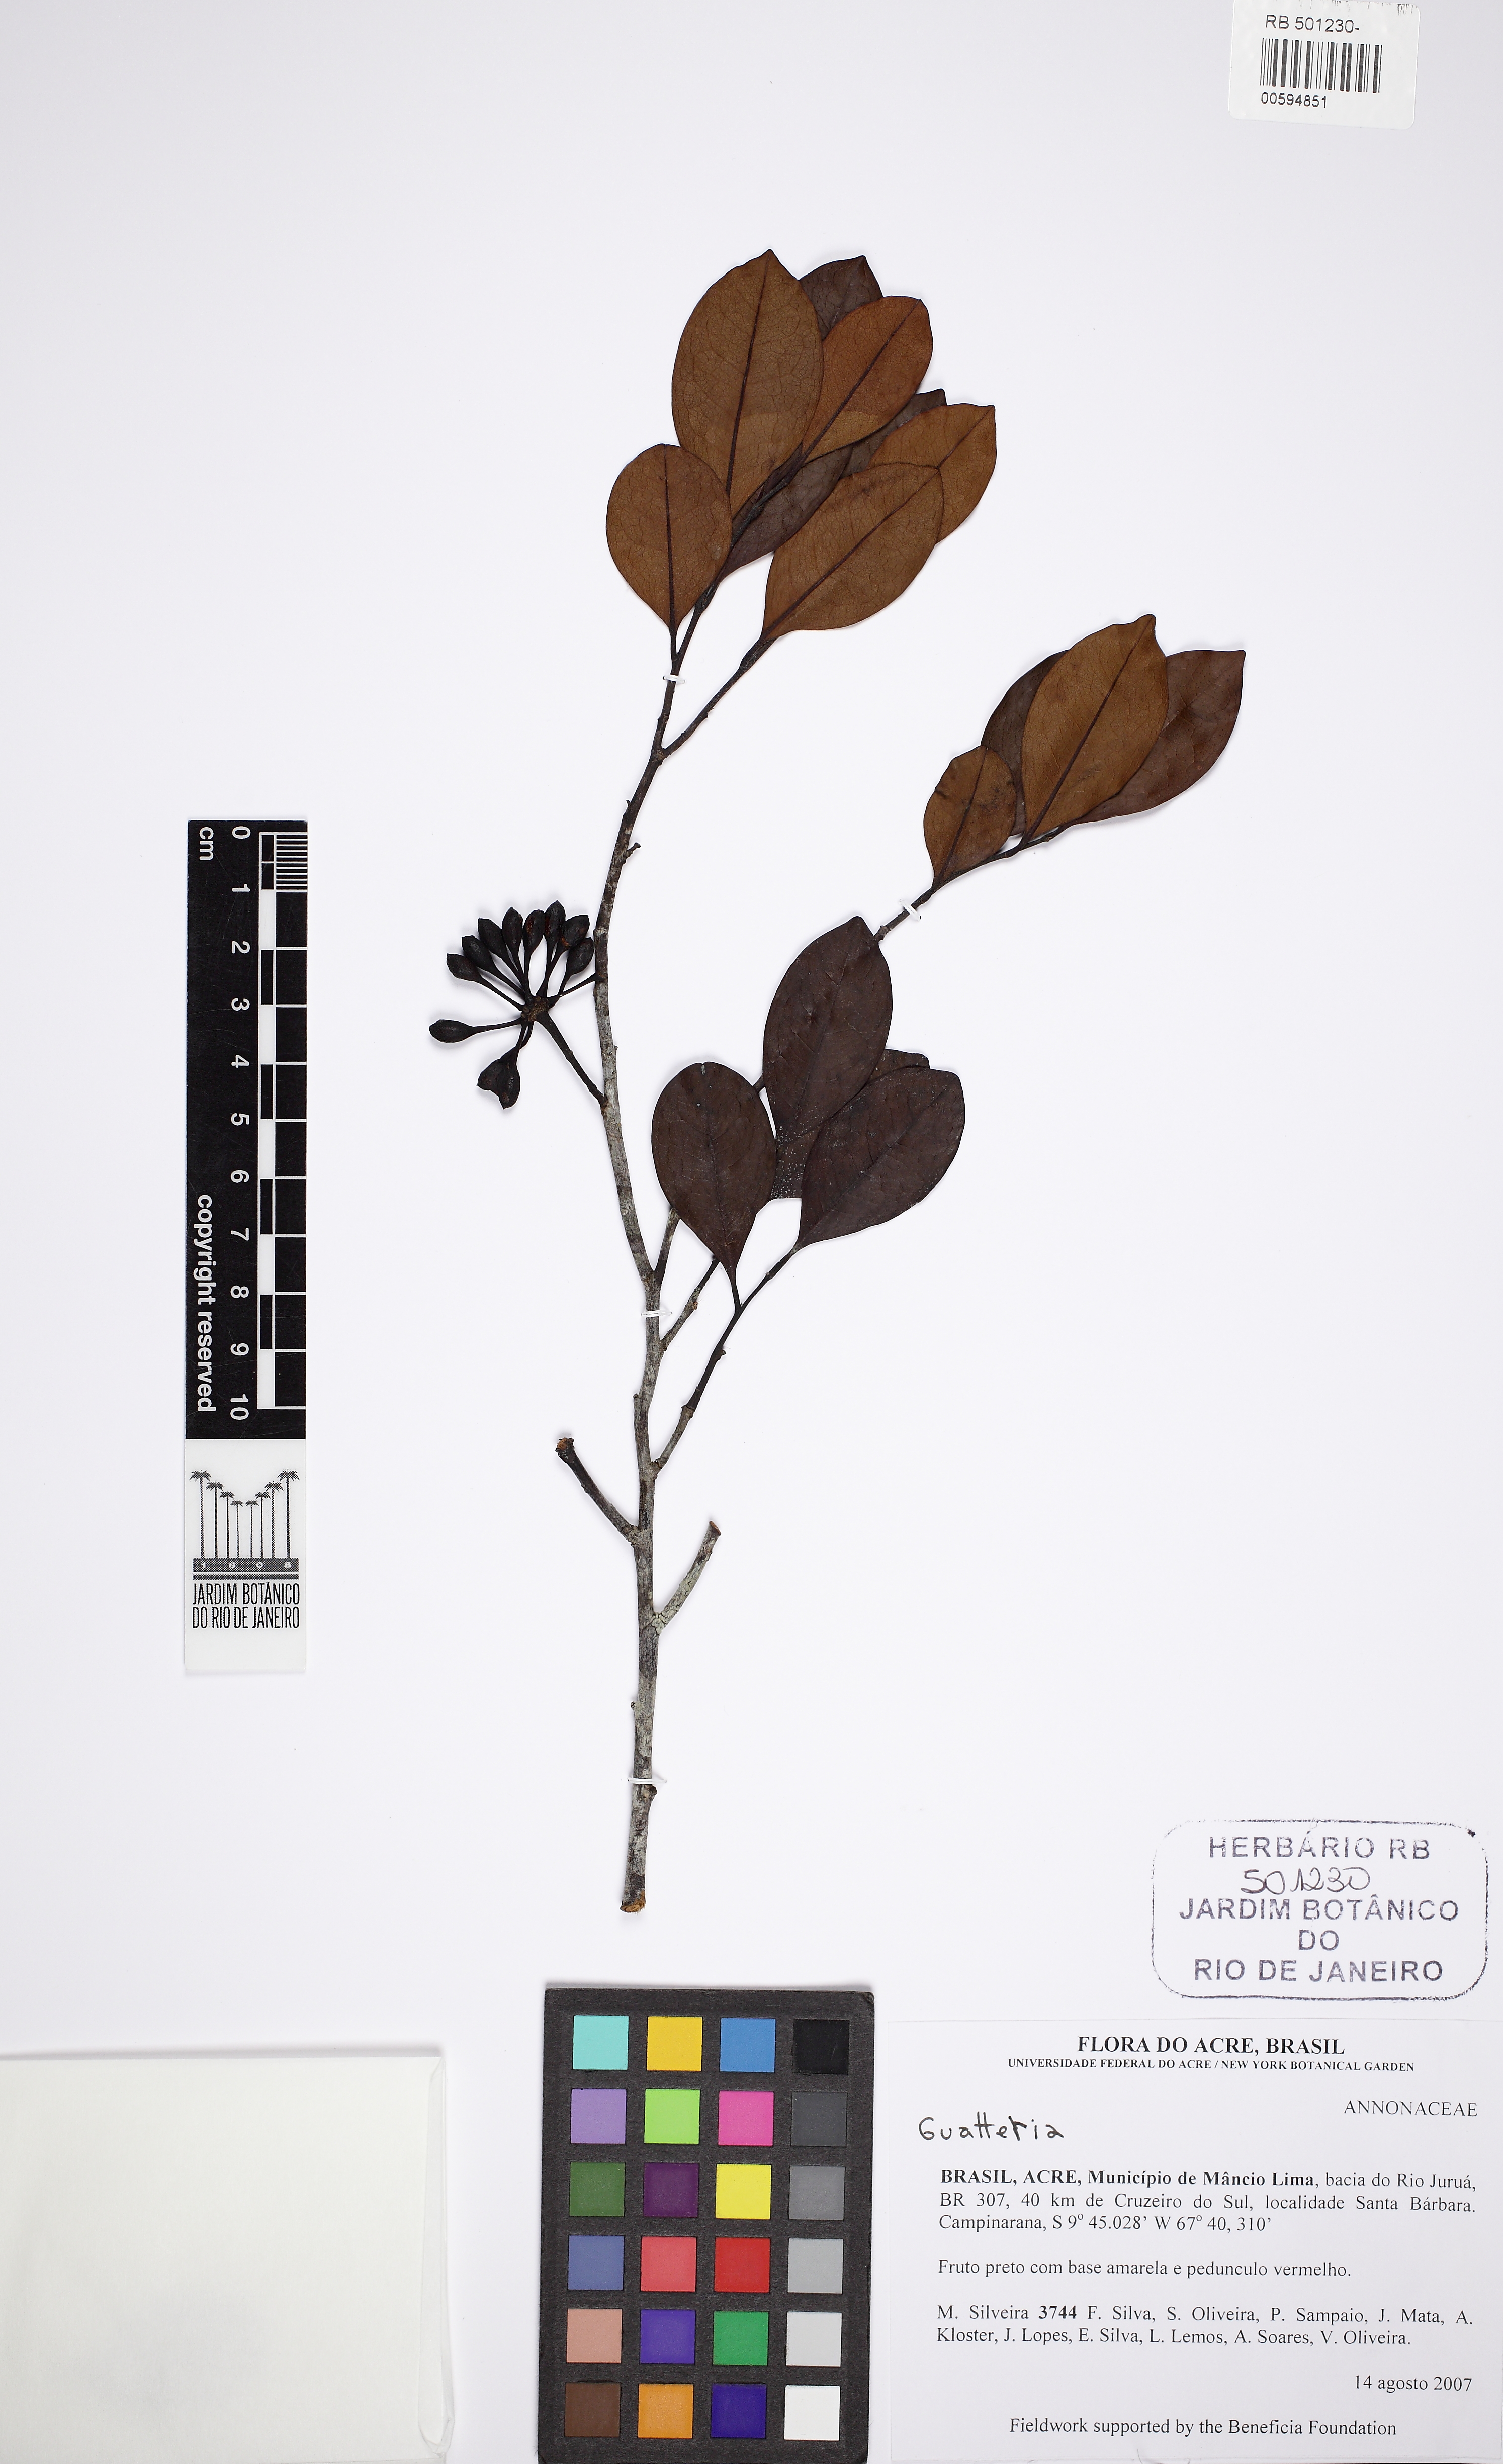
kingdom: Plantae
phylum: Tracheophyta
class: Magnoliopsida
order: Magnoliales
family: Annonaceae
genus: Guatteria
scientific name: Guatteria arenicola
